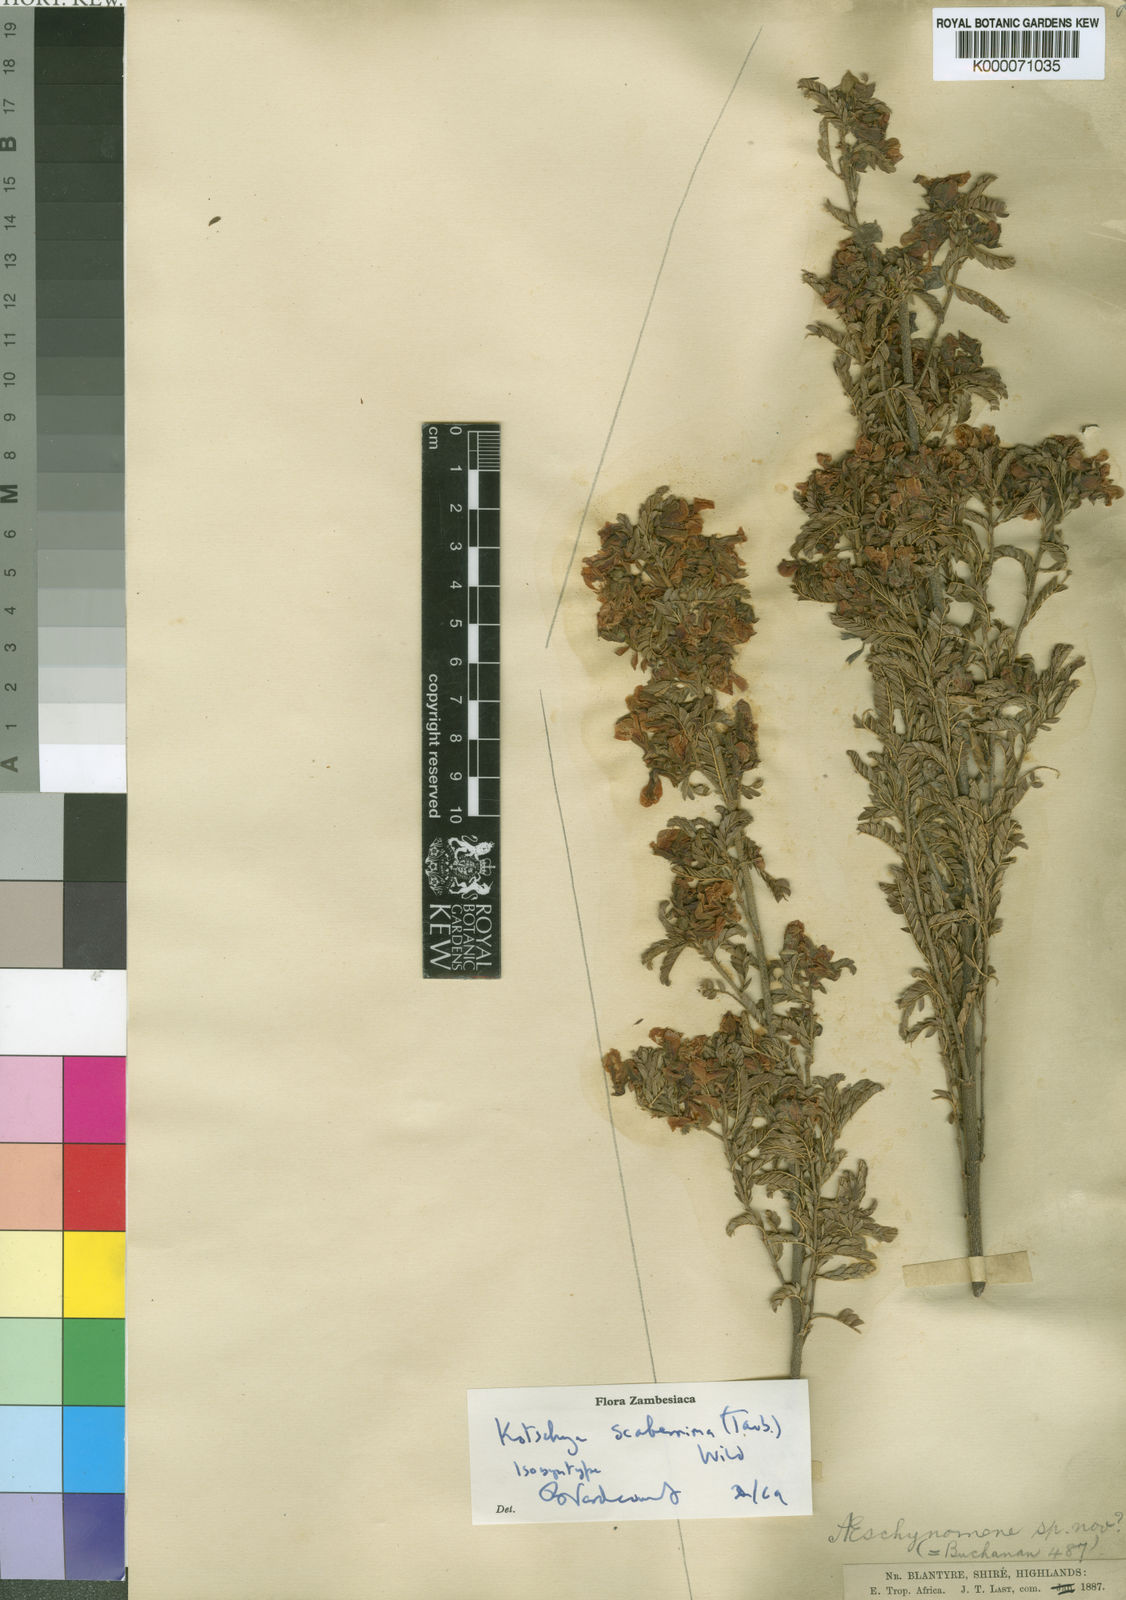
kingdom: Plantae
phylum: Tracheophyta
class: Magnoliopsida
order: Fabales
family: Fabaceae
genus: Kotschya
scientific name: Kotschya scaberrima
